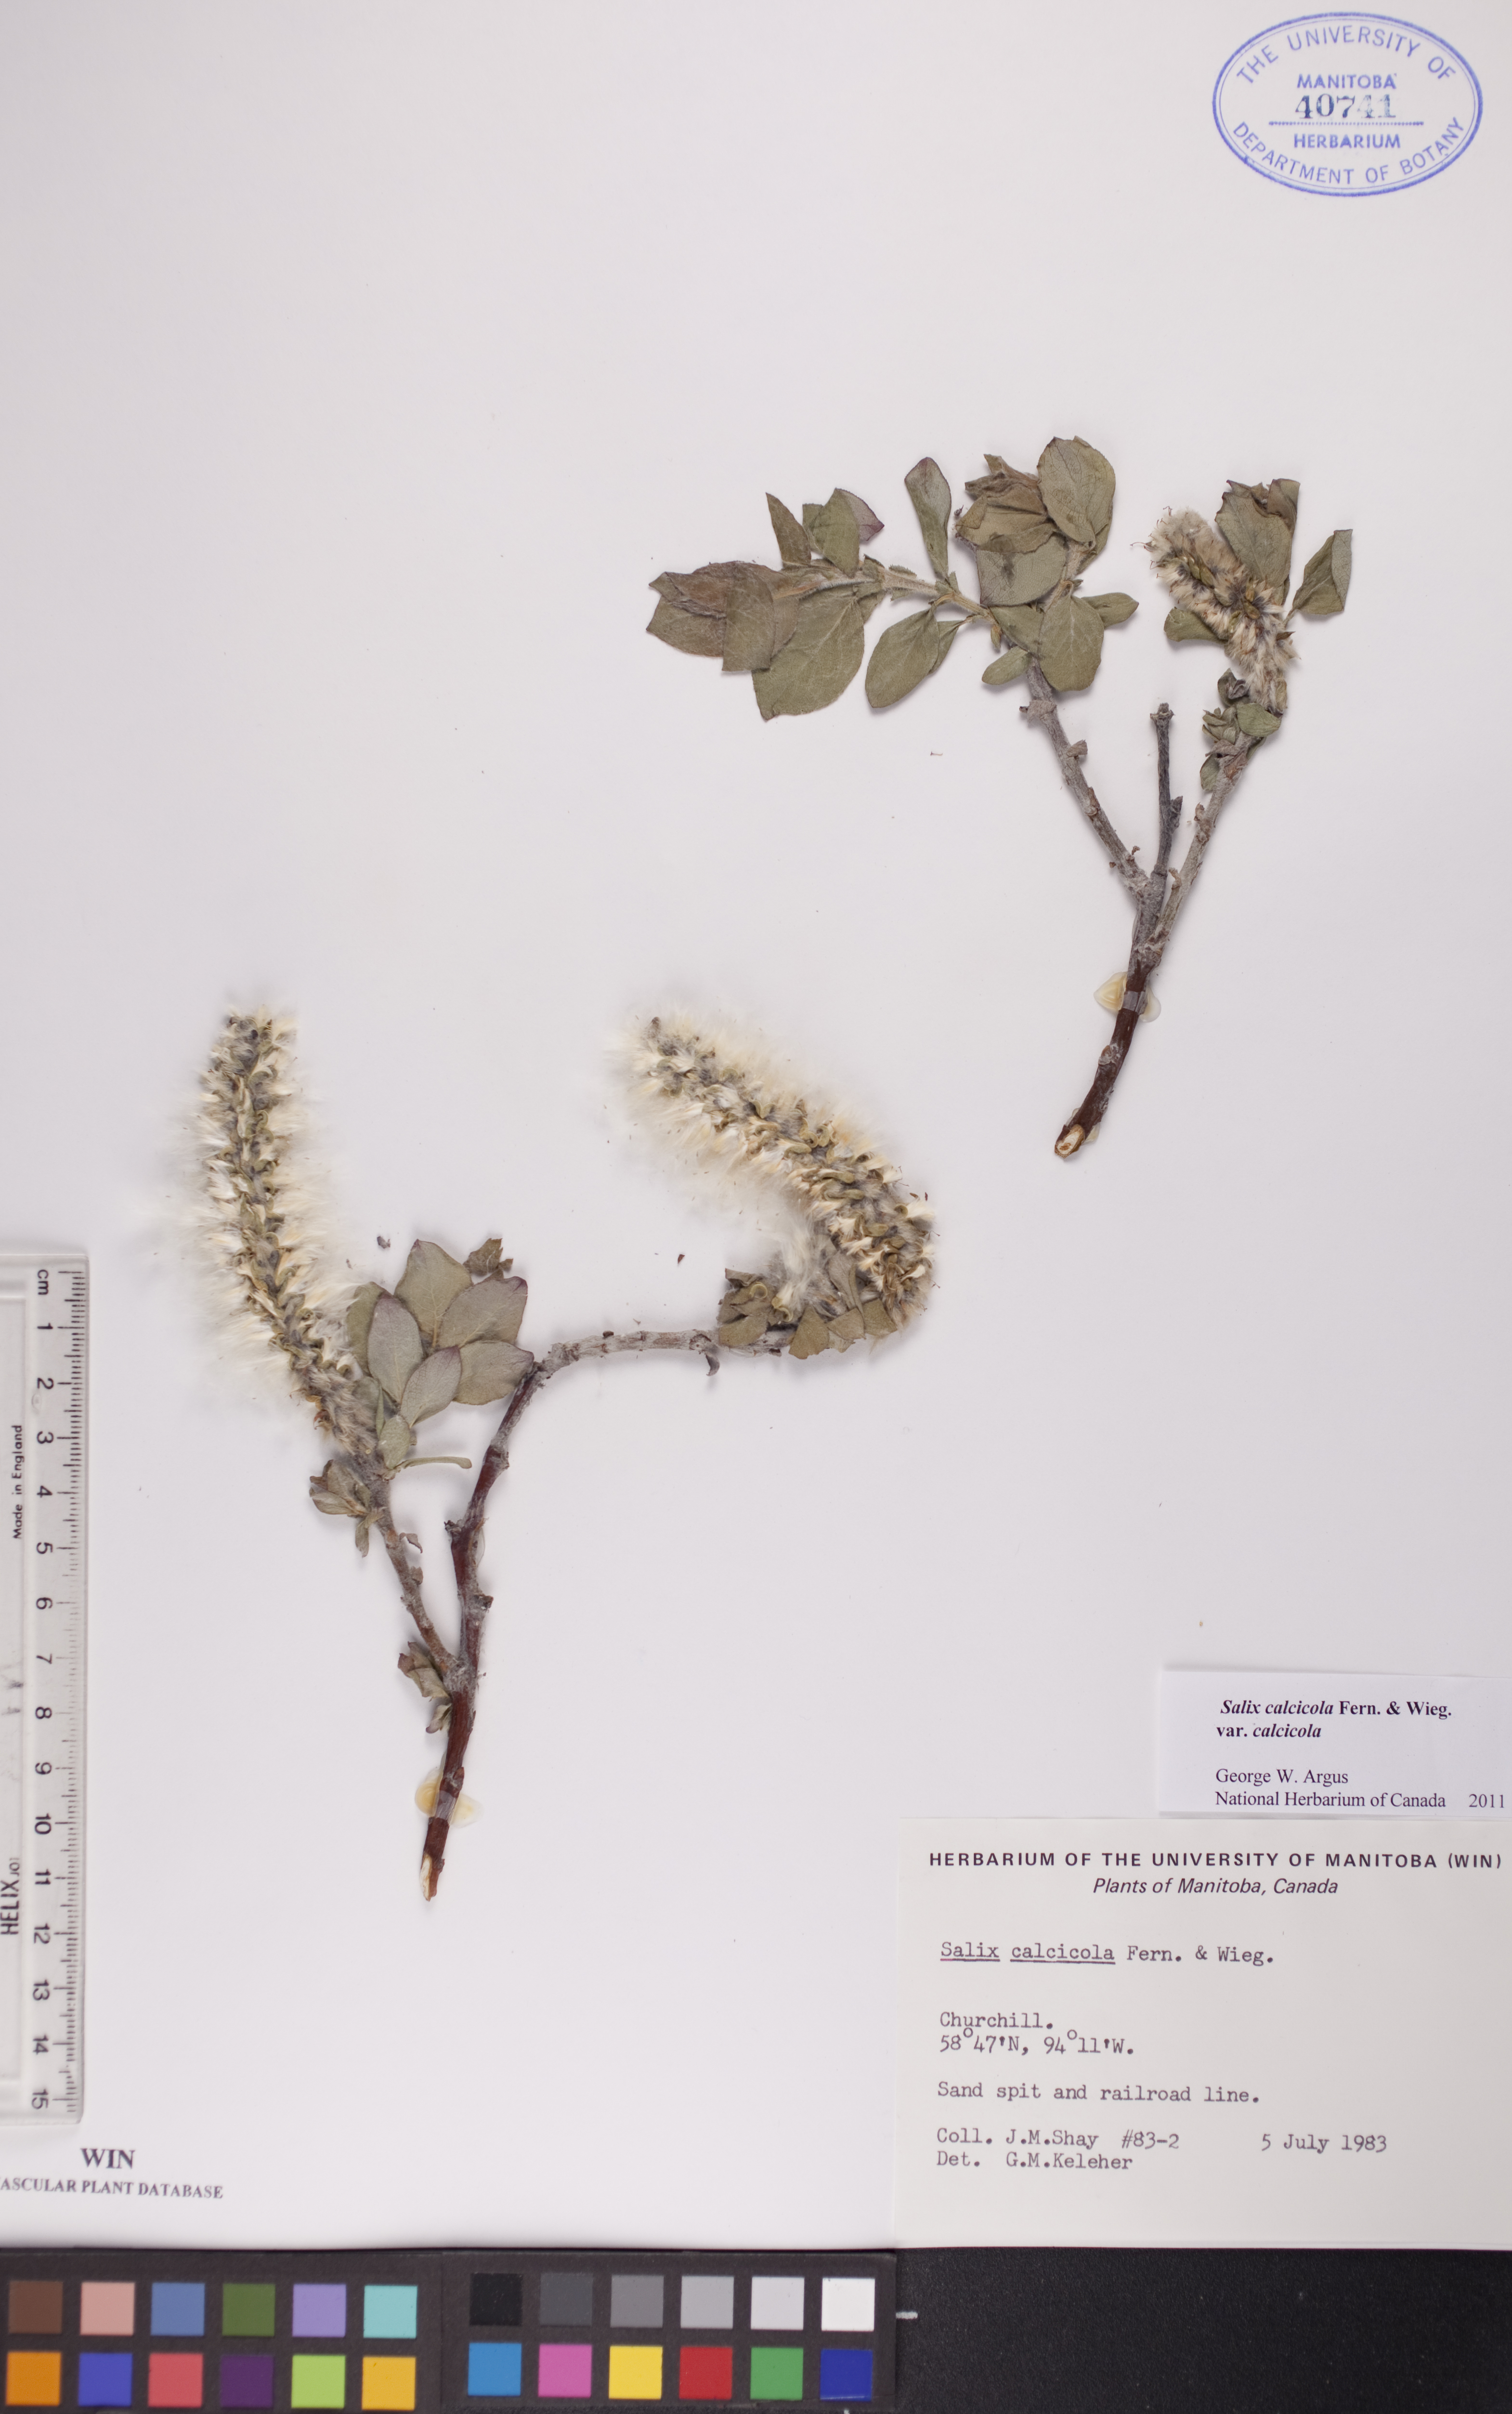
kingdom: Plantae
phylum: Tracheophyta
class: Magnoliopsida
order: Malpighiales
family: Salicaceae
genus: Salix
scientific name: Salix calcicola
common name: Calcareous willow
